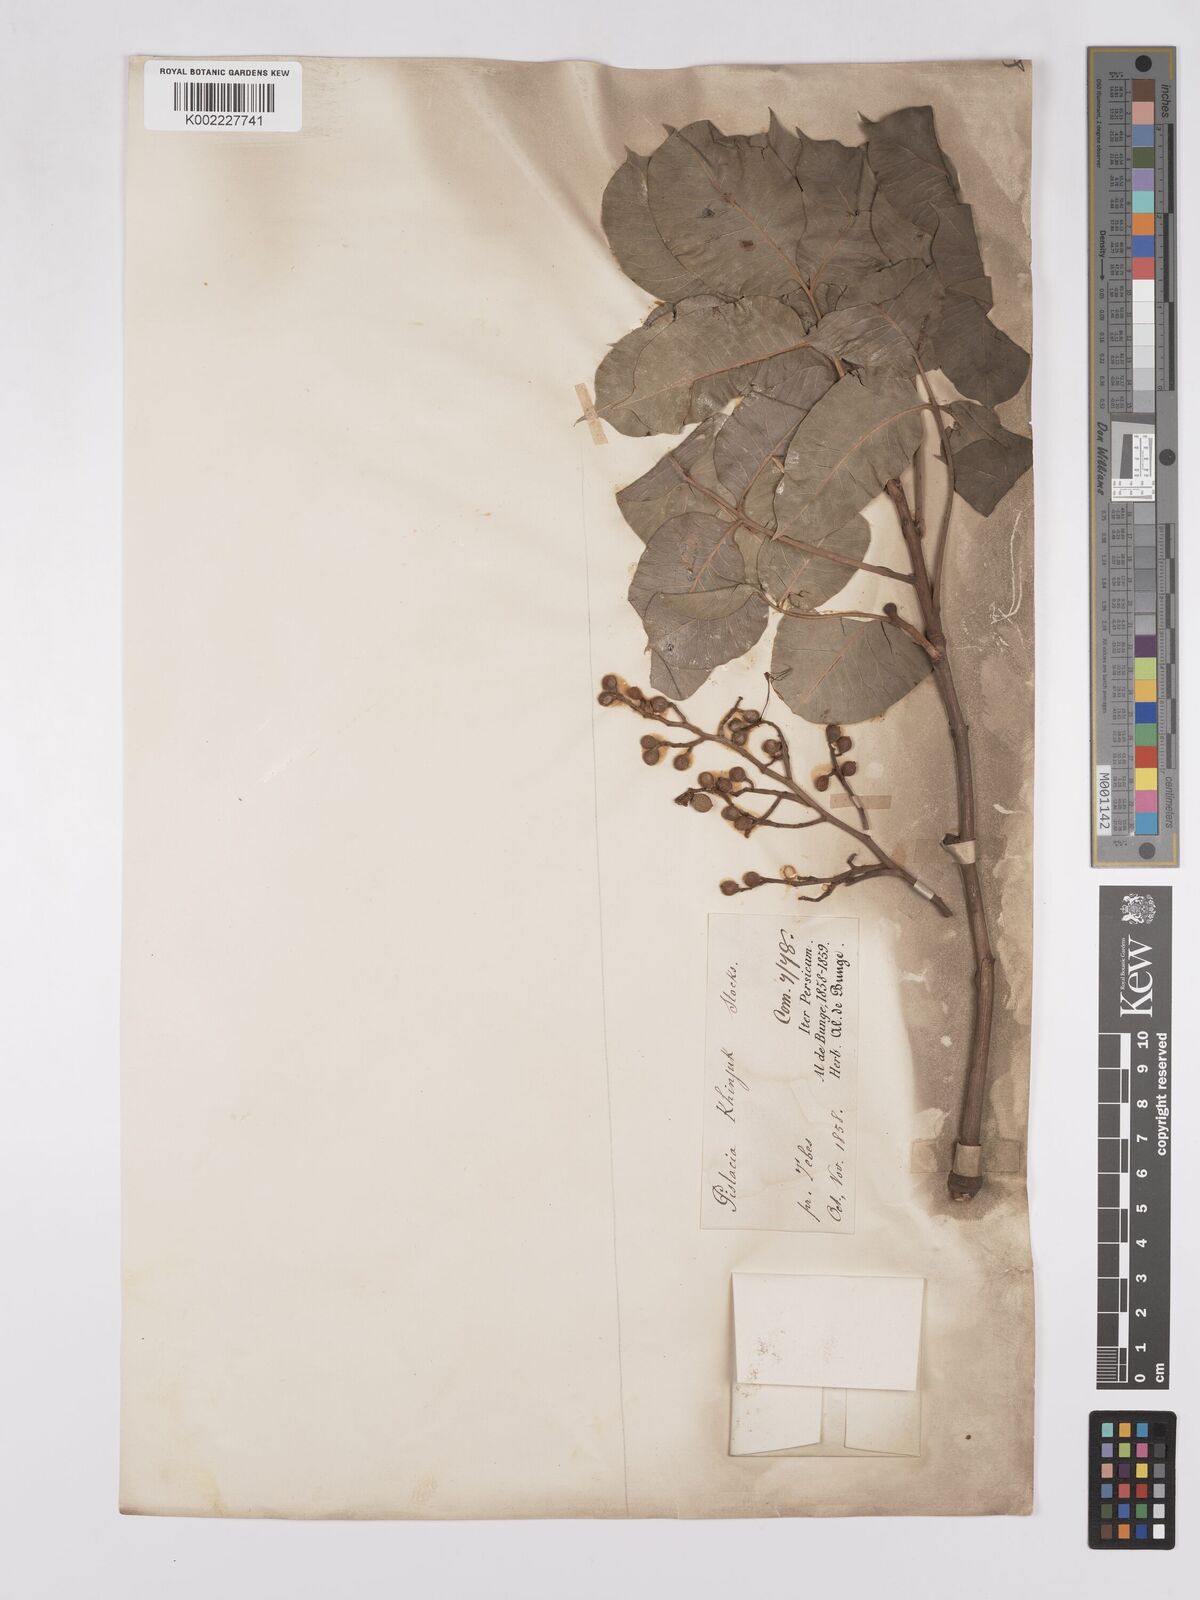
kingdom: Plantae
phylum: Tracheophyta
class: Magnoliopsida
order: Sapindales
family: Anacardiaceae
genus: Pistacia
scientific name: Pistacia khinjuk
